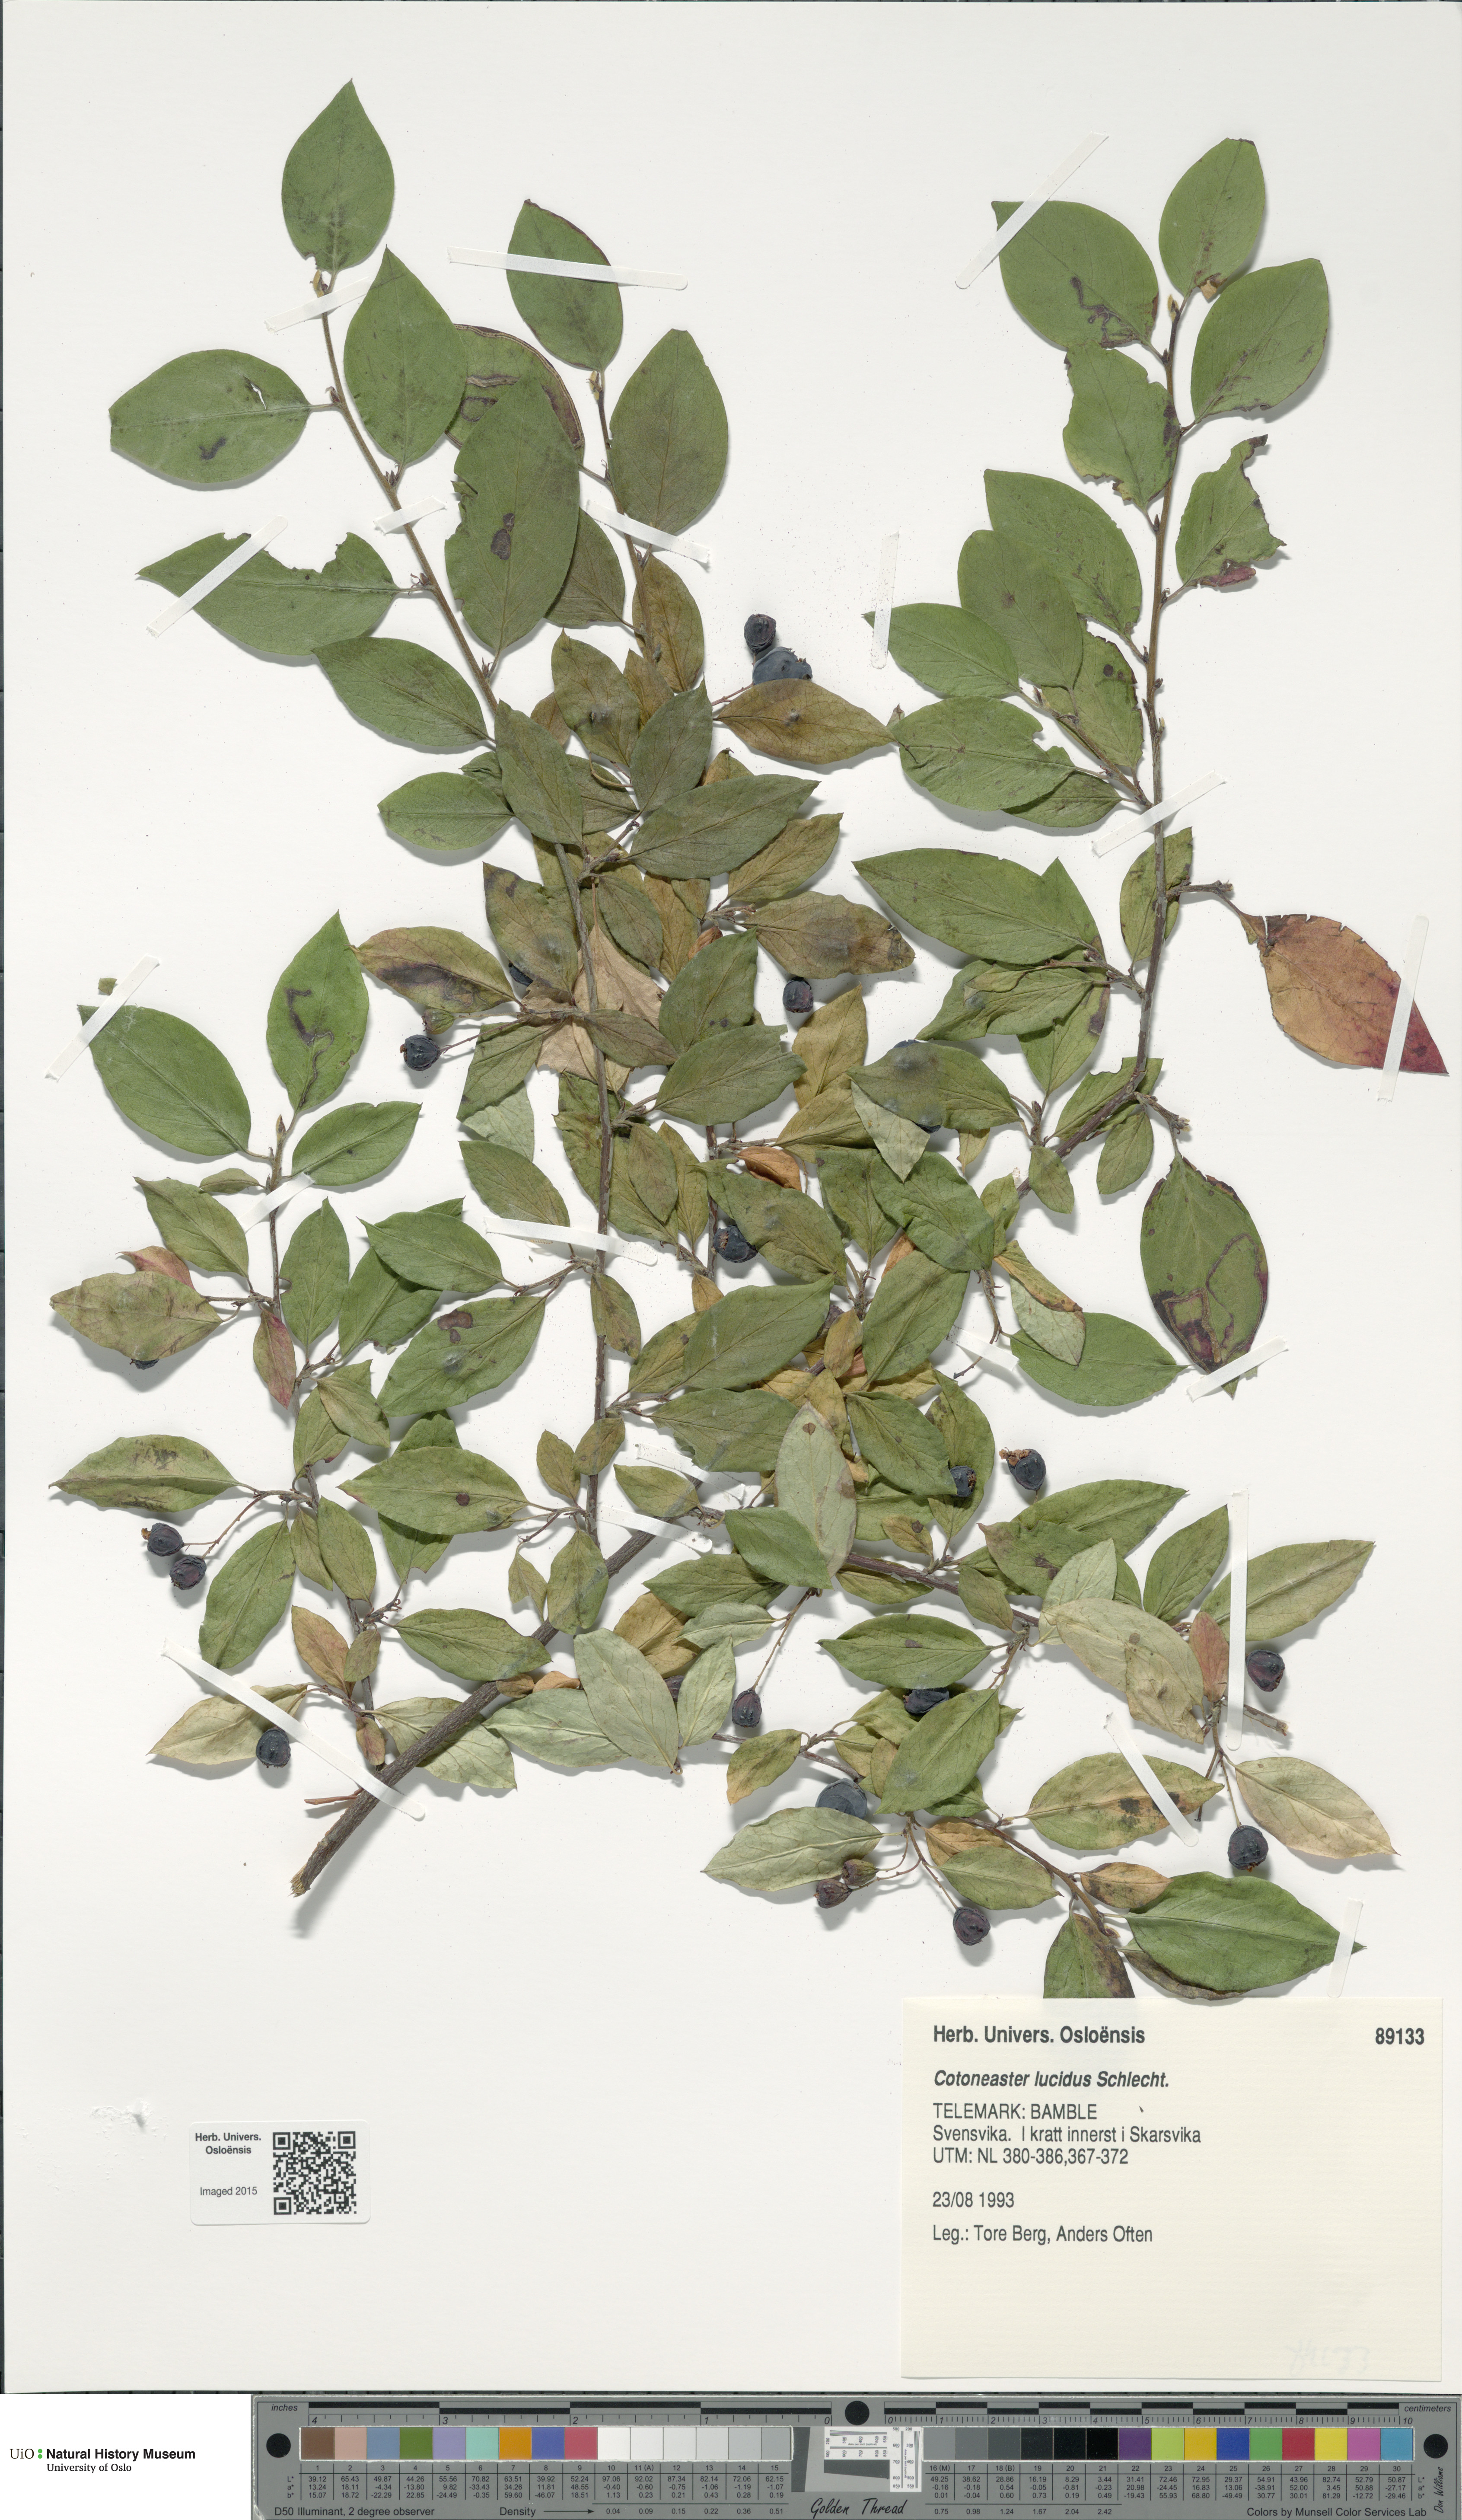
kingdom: Plantae
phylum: Tracheophyta
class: Magnoliopsida
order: Rosales
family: Rosaceae
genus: Cotoneaster
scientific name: Cotoneaster acutifolius
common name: Peking cotoneaster
